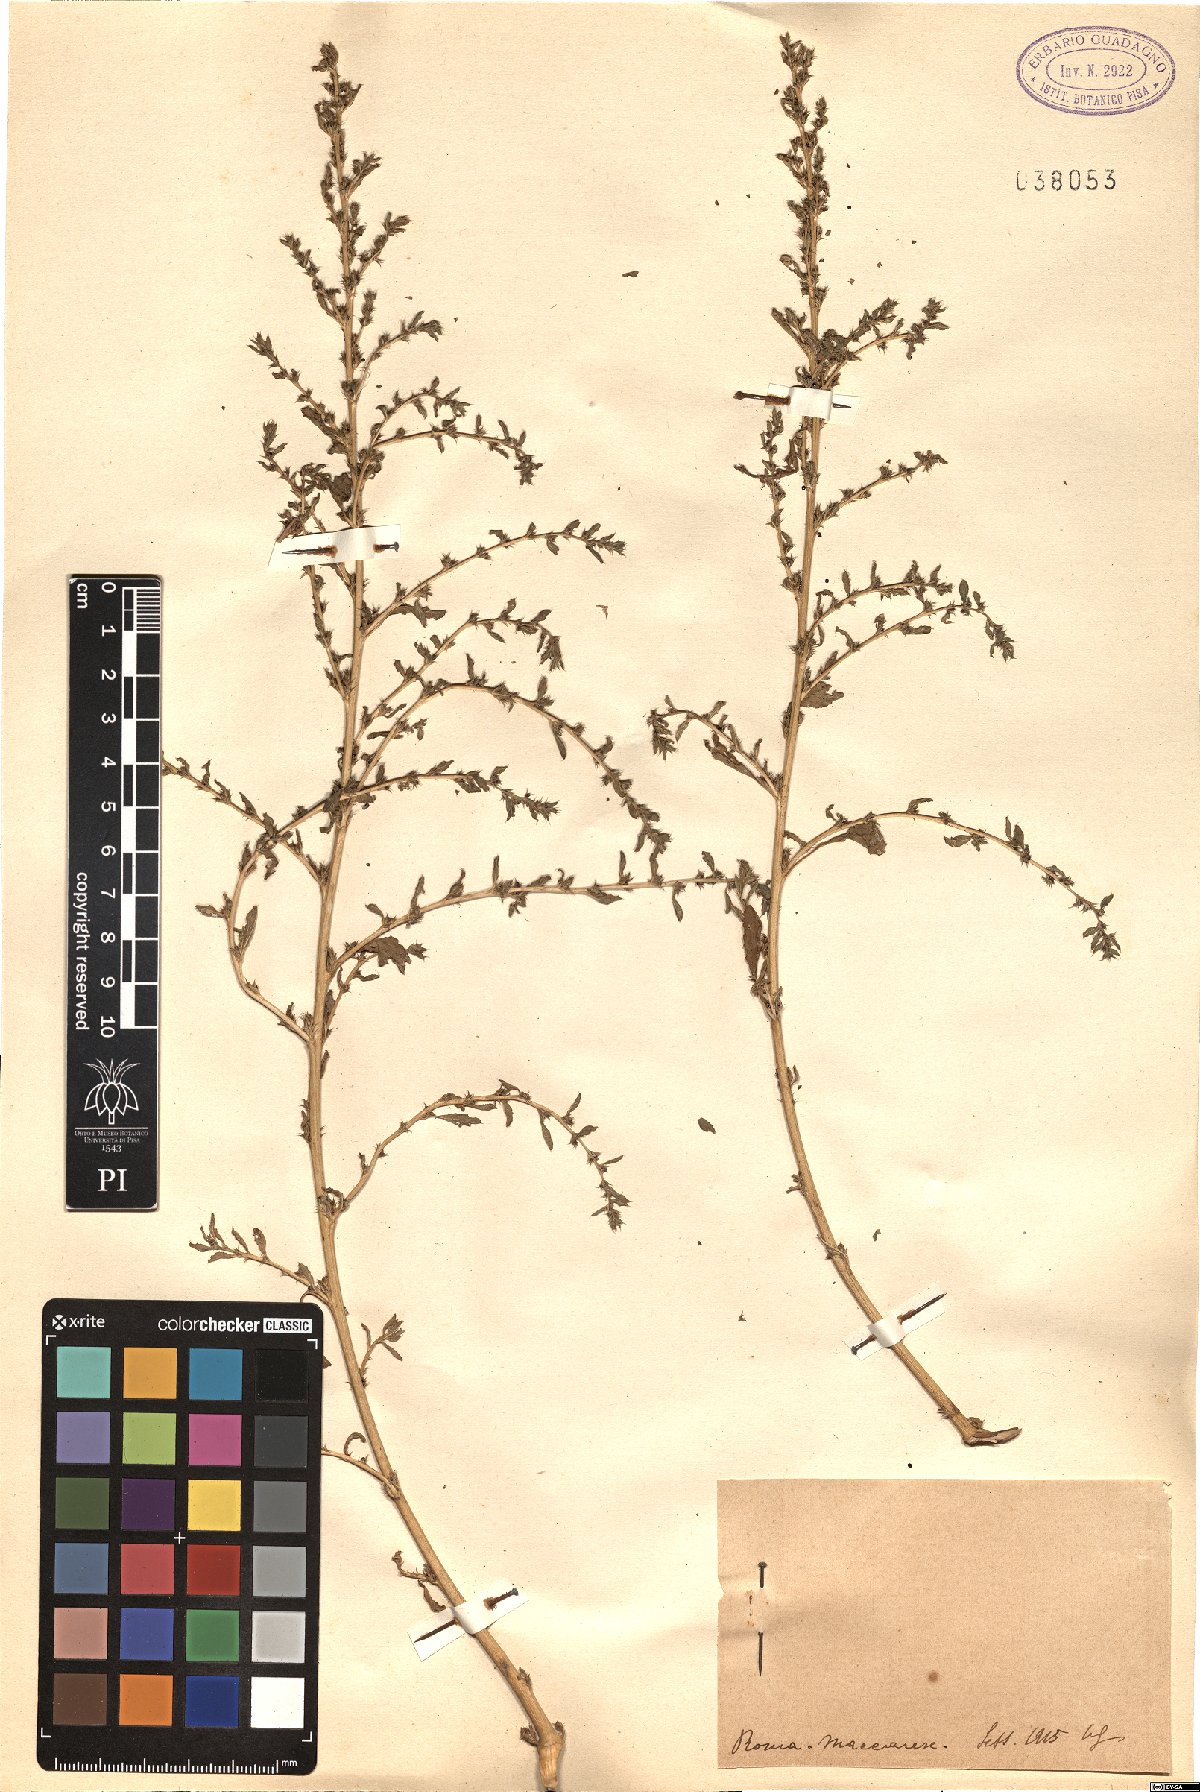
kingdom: Plantae
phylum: Tracheophyta
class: Magnoliopsida
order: Caryophyllales
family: Amaranthaceae
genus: Amaranthus
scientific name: Amaranthus
